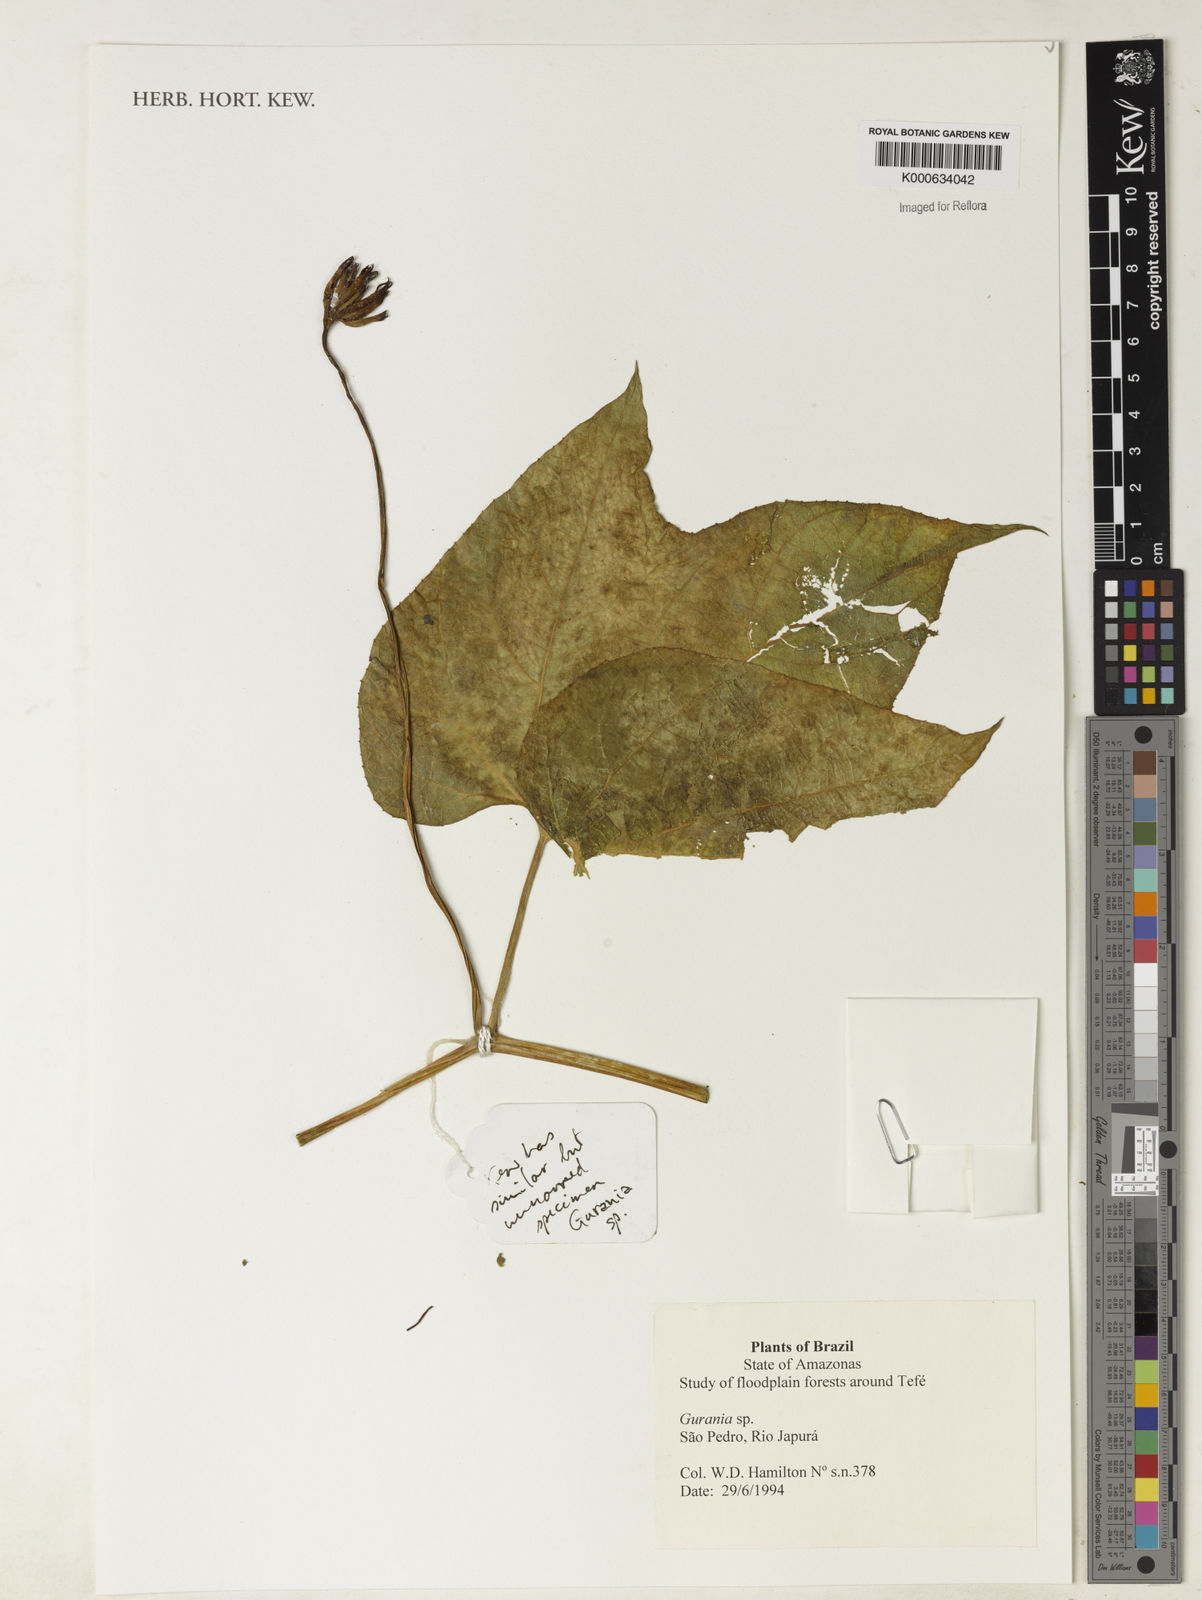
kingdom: Plantae
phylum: Tracheophyta
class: Magnoliopsida
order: Cucurbitales
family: Cucurbitaceae
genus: Gurania
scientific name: Gurania acuminata
